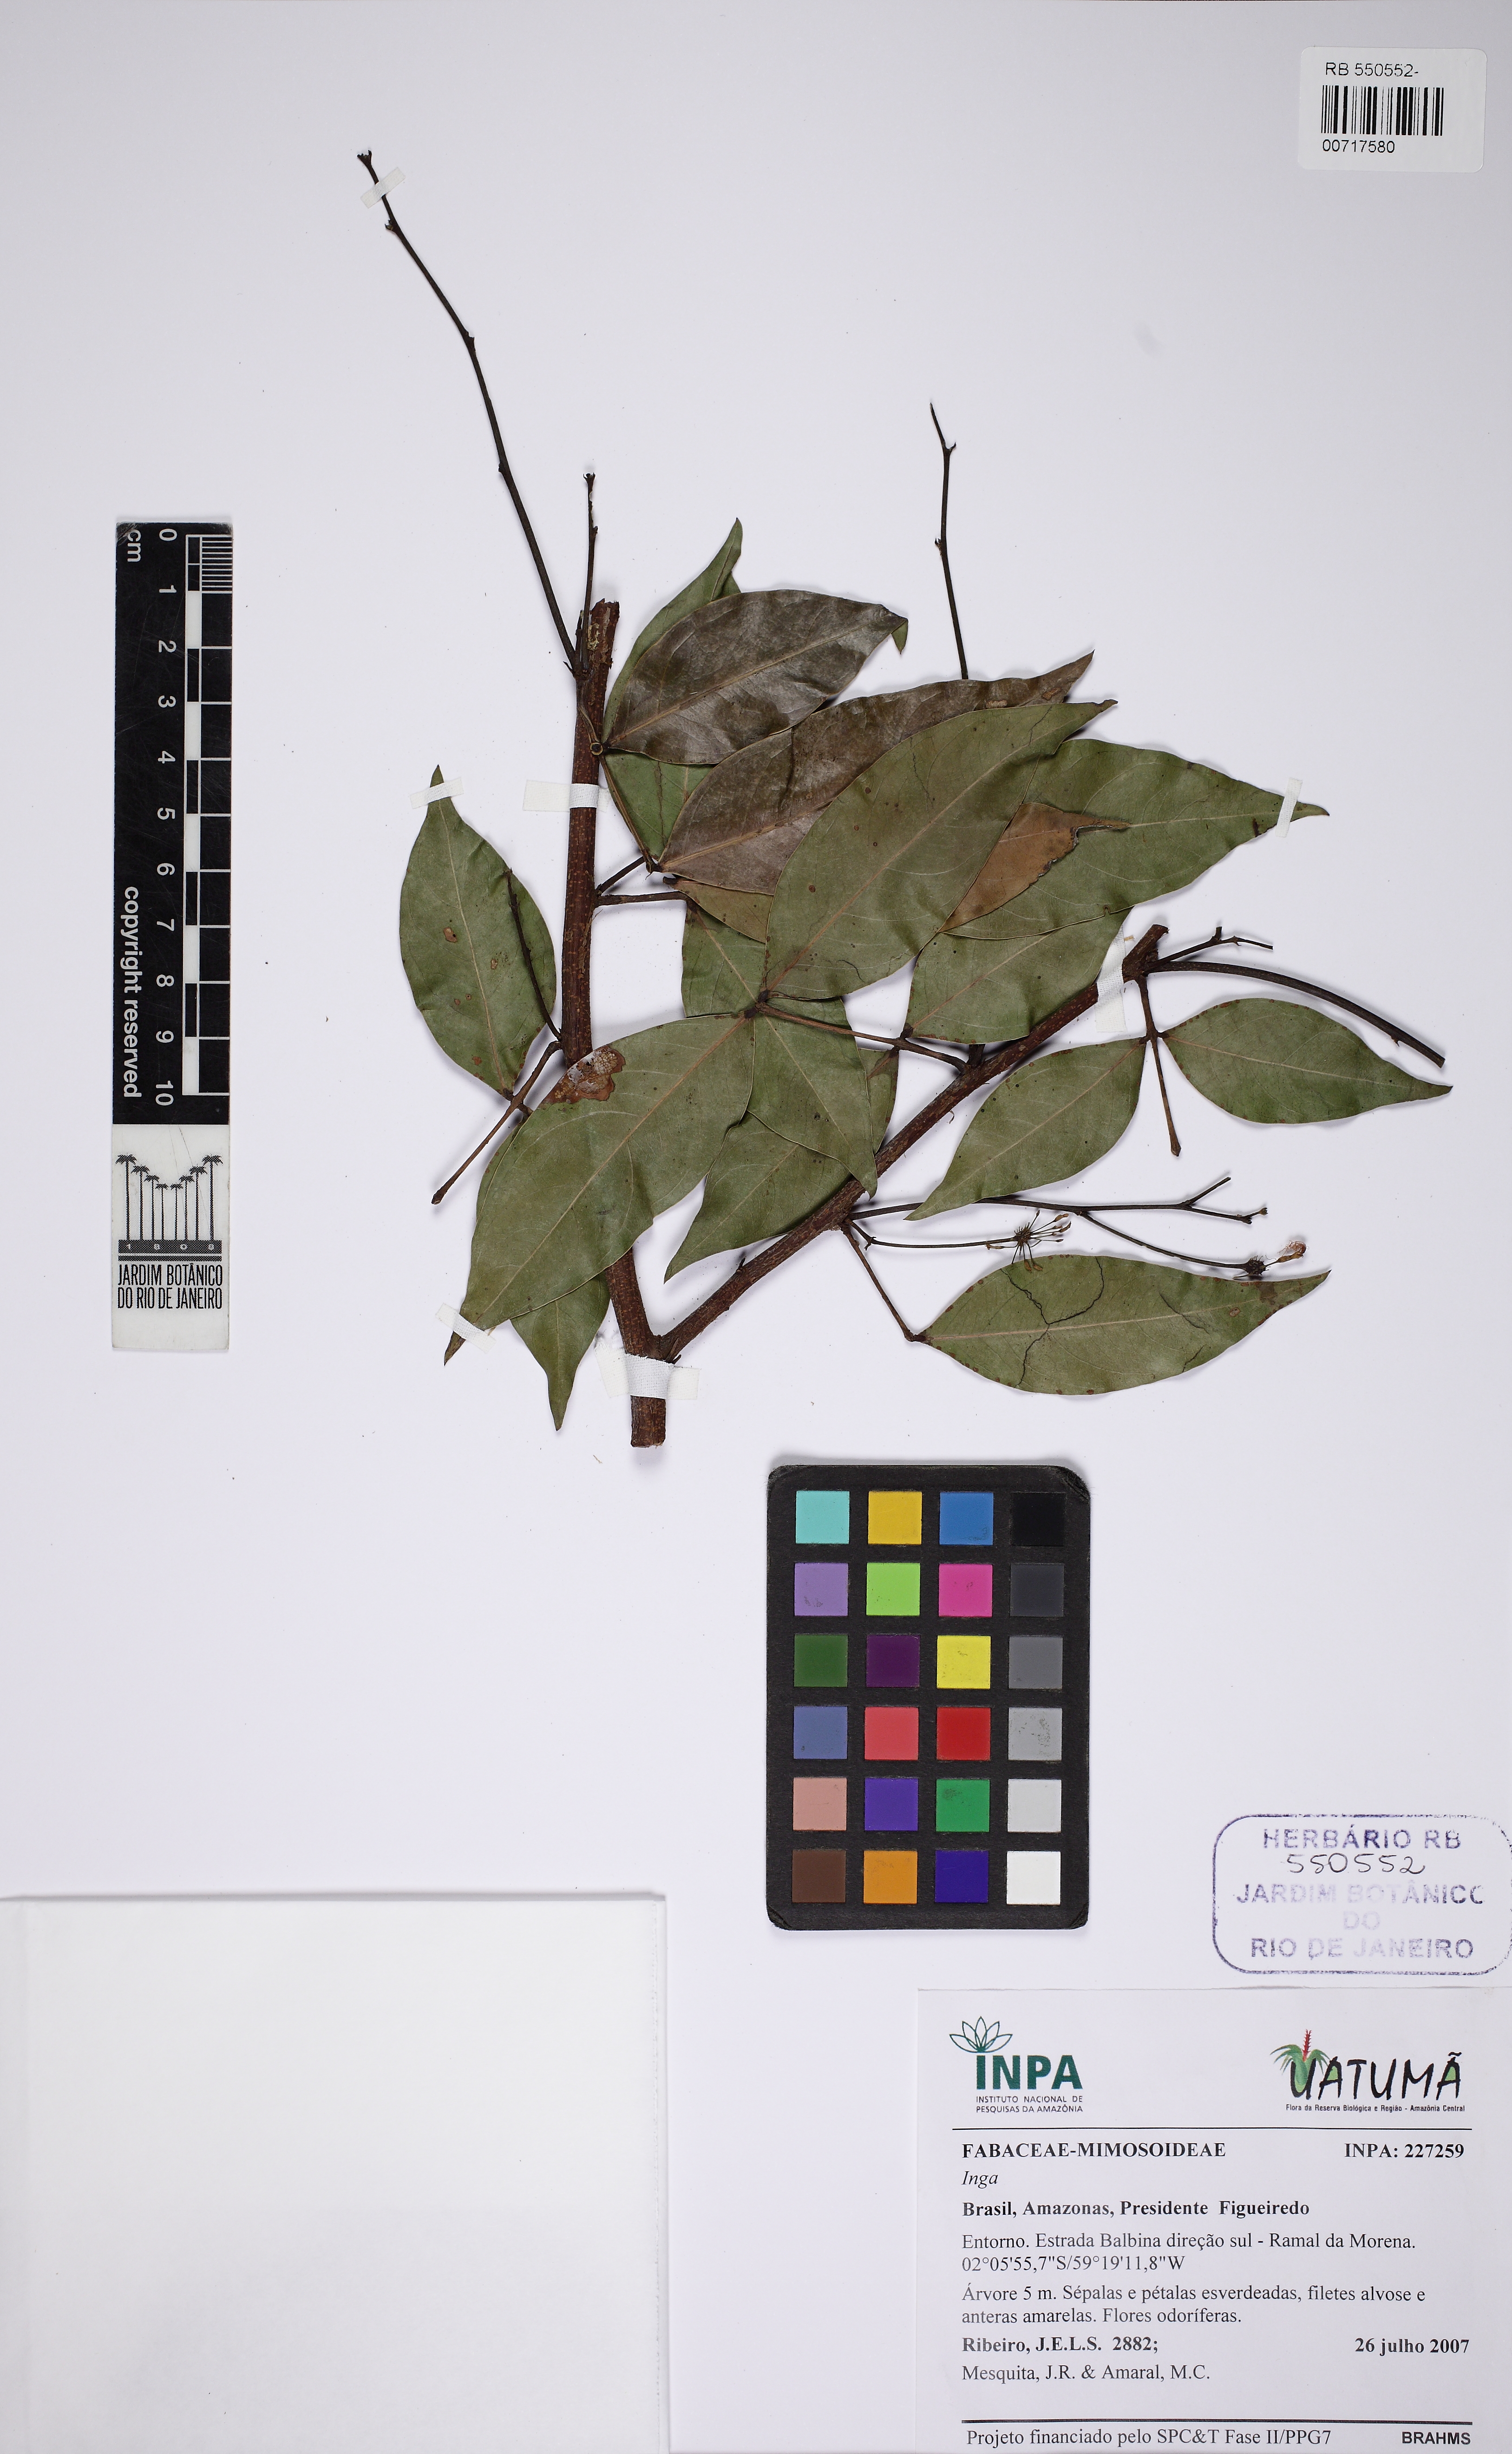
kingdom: Plantae
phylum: Tracheophyta
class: Magnoliopsida
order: Fabales
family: Fabaceae
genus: Inga
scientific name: Inga
